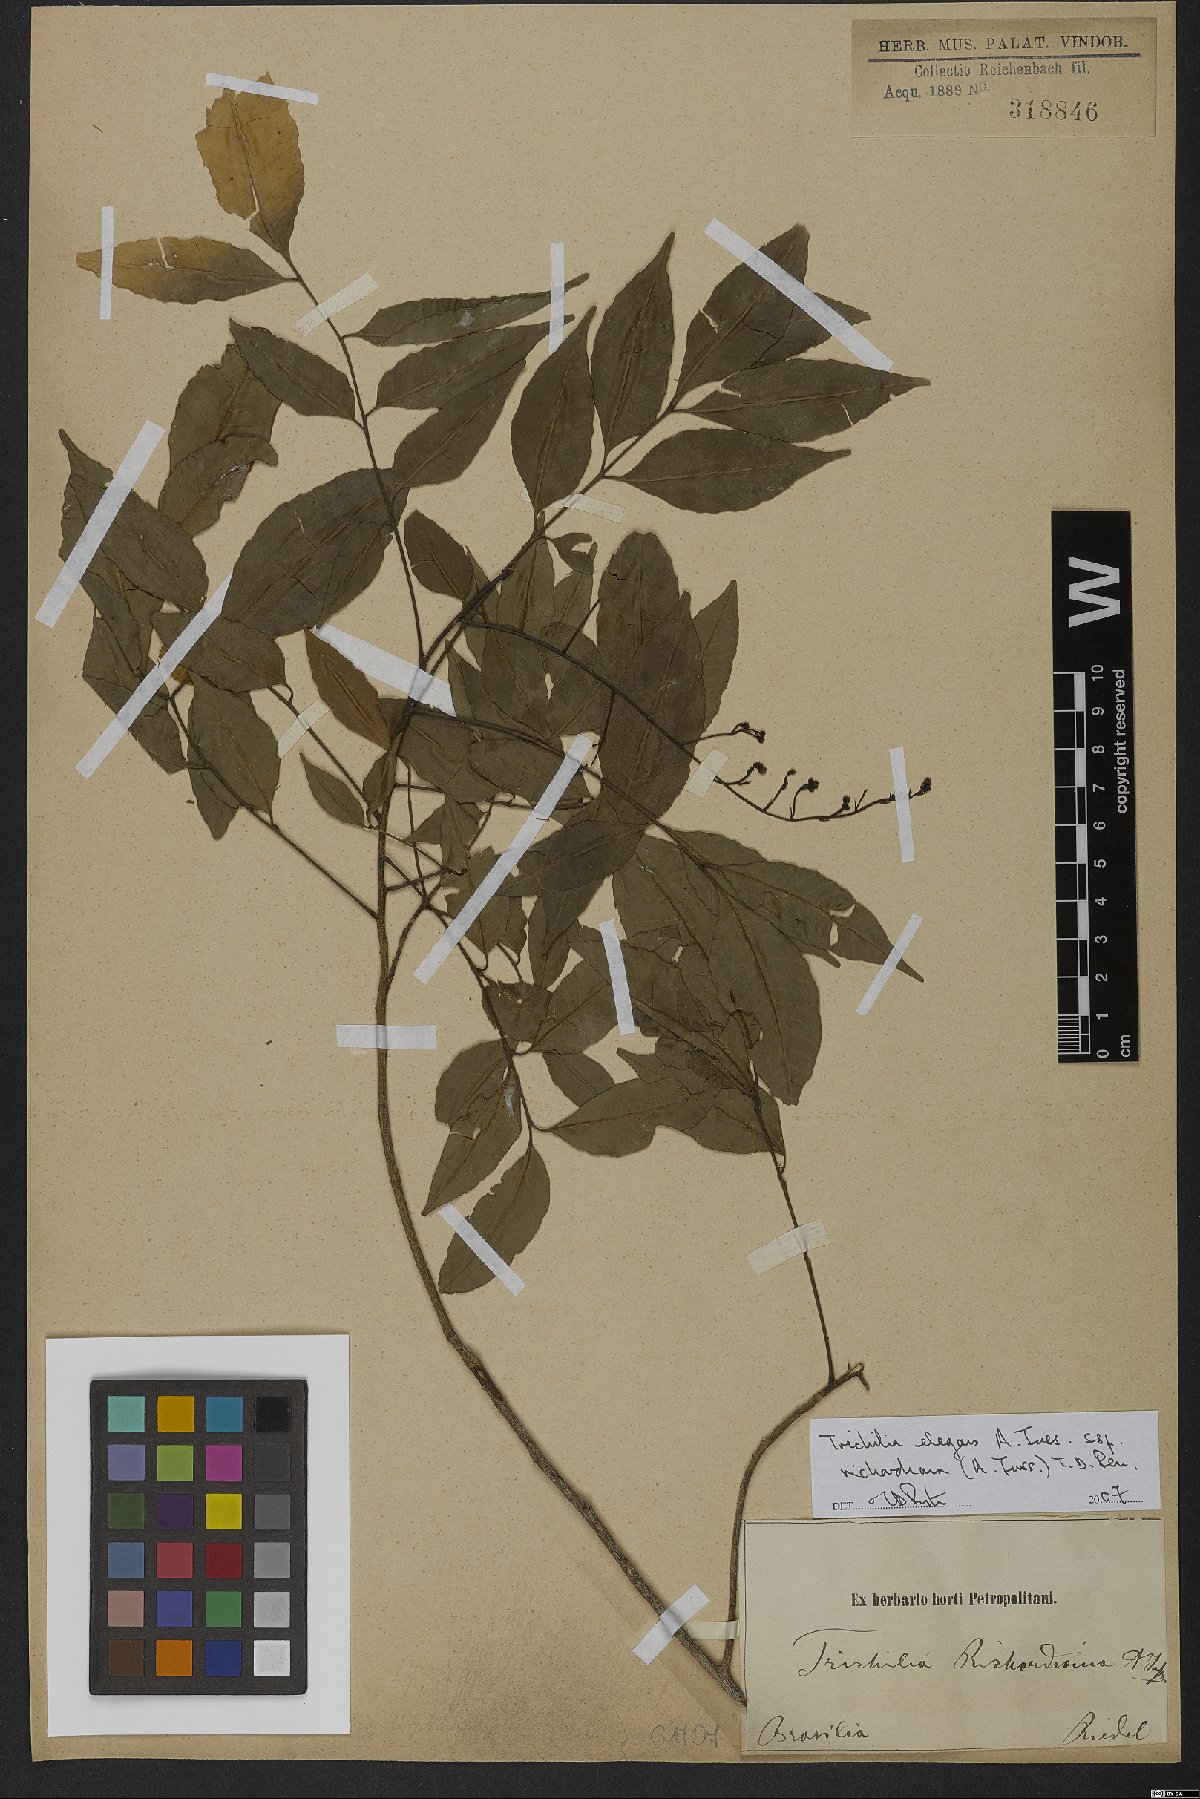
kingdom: Plantae
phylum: Tracheophyta
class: Magnoliopsida
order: Sapindales
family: Meliaceae
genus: Trichilia
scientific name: Trichilia elegans
